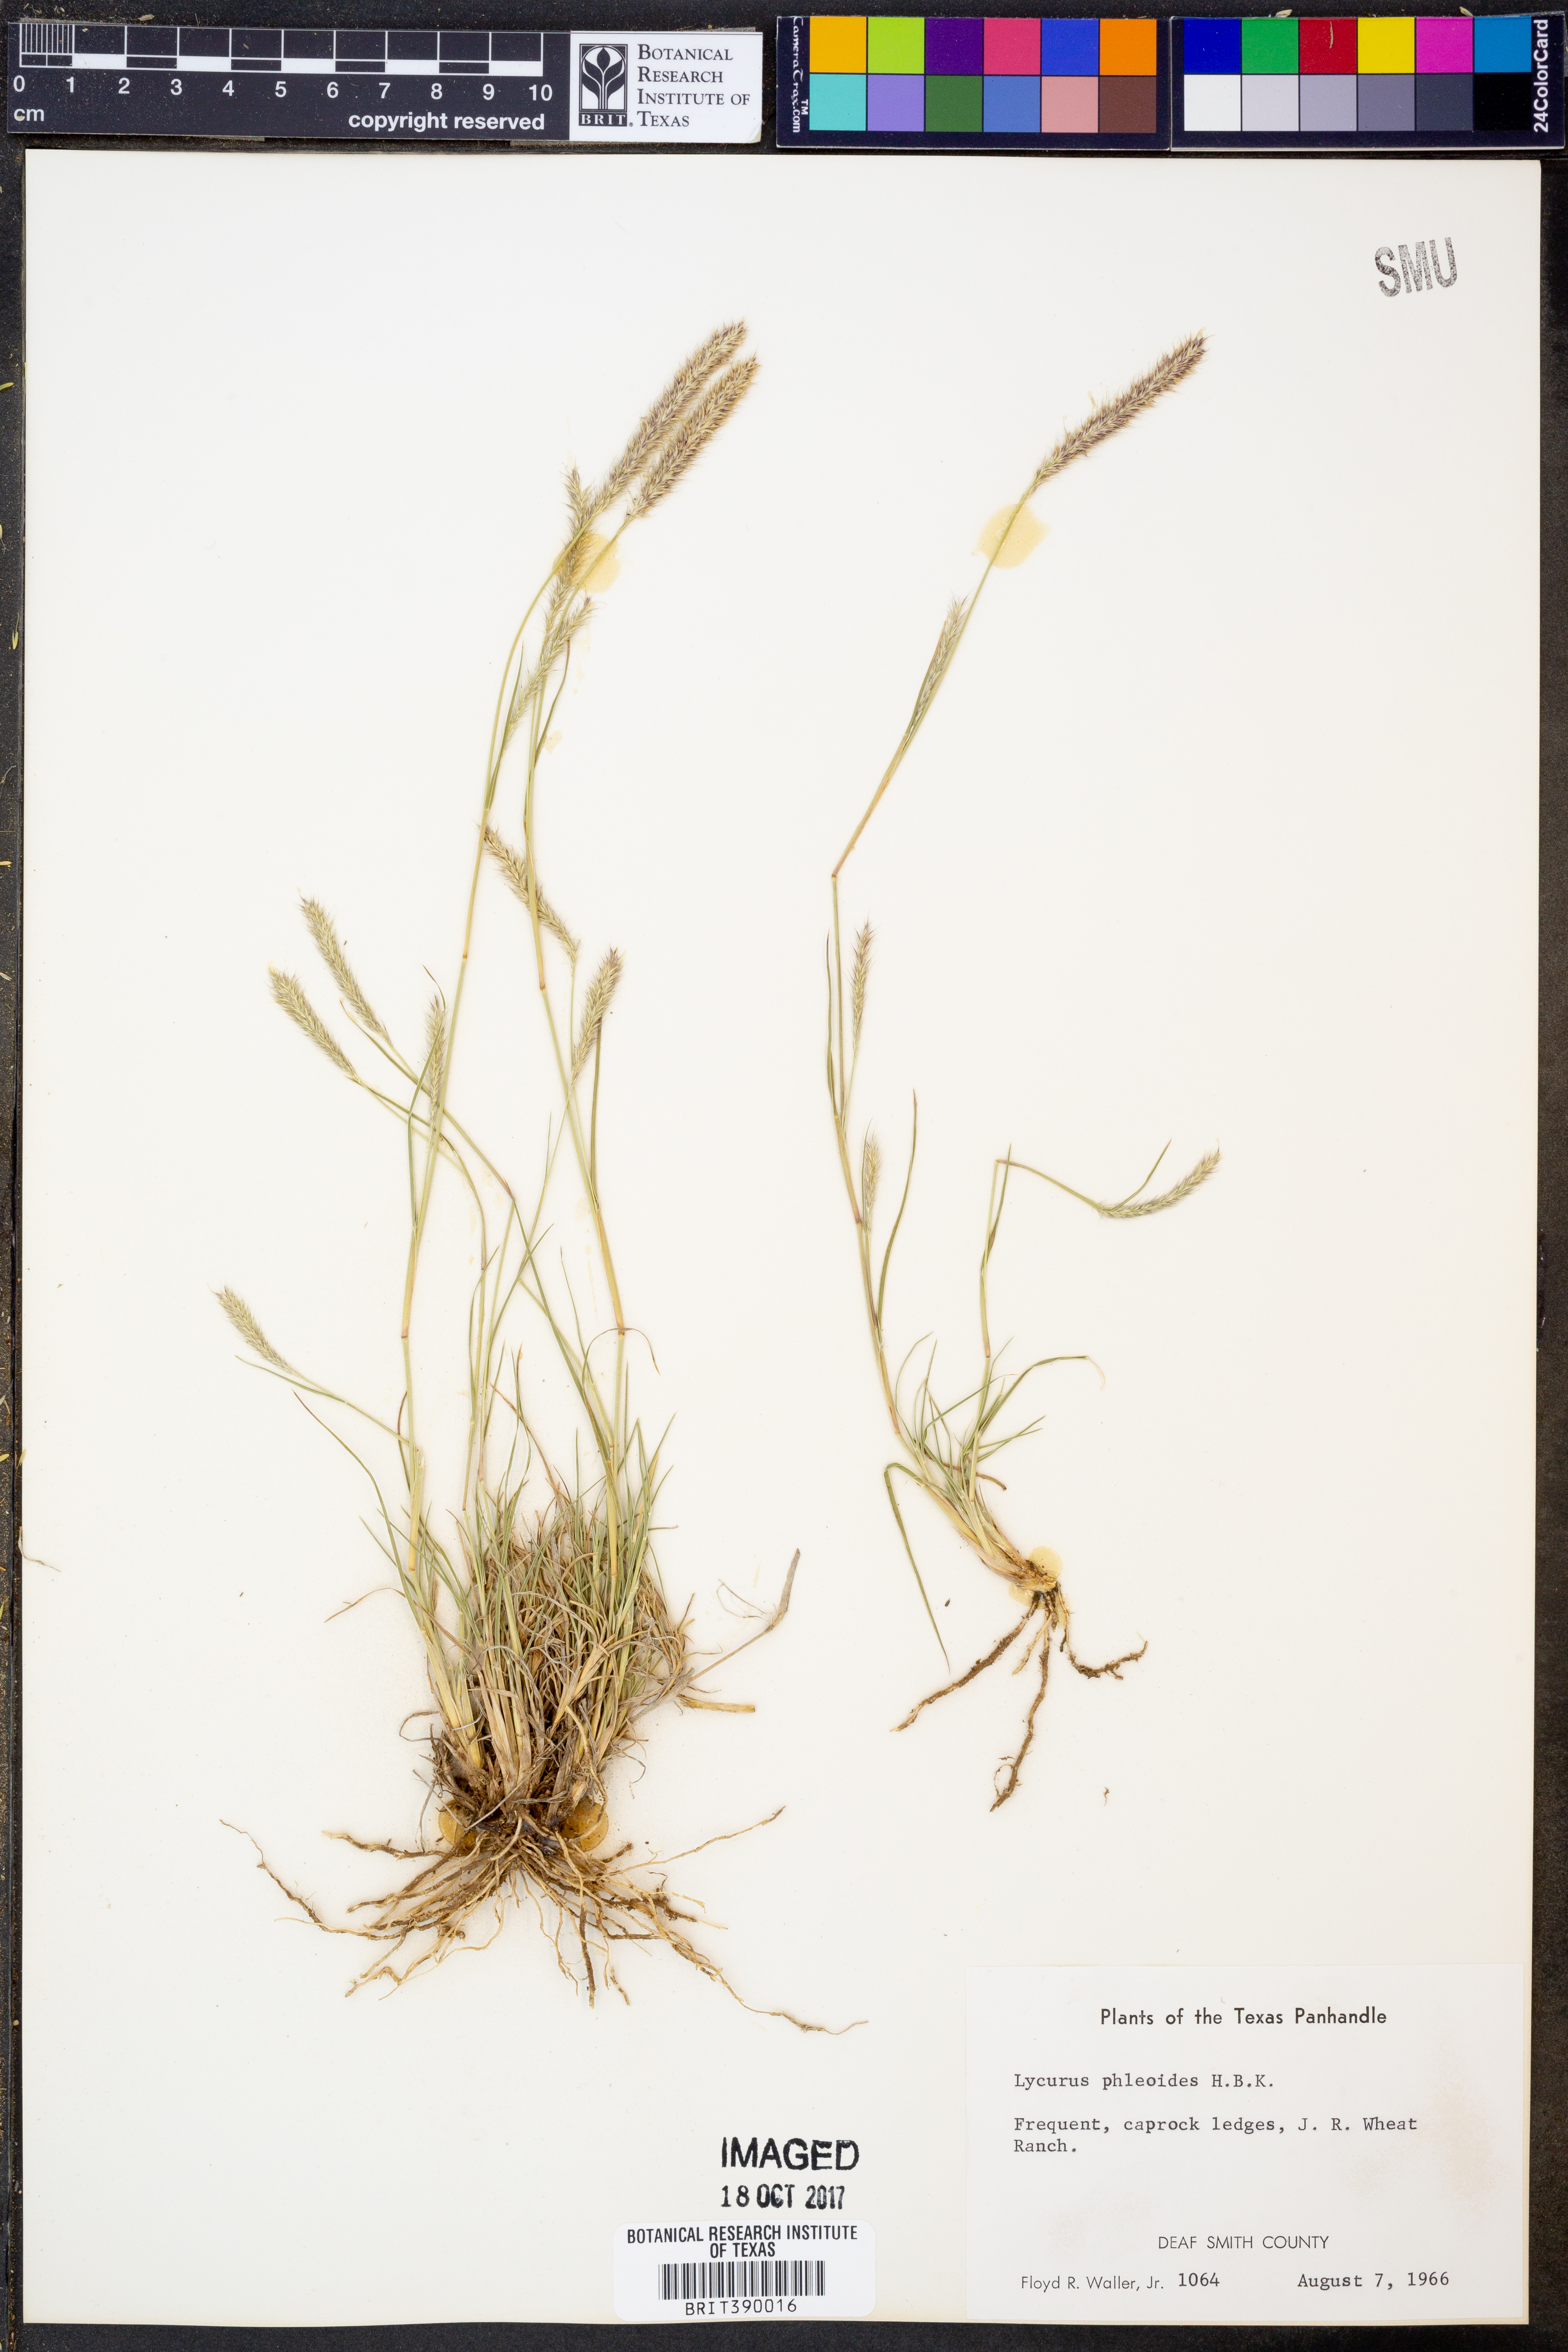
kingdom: Plantae
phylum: Tracheophyta
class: Liliopsida
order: Poales
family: Poaceae
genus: Muhlenbergia
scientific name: Muhlenbergia phleoides
